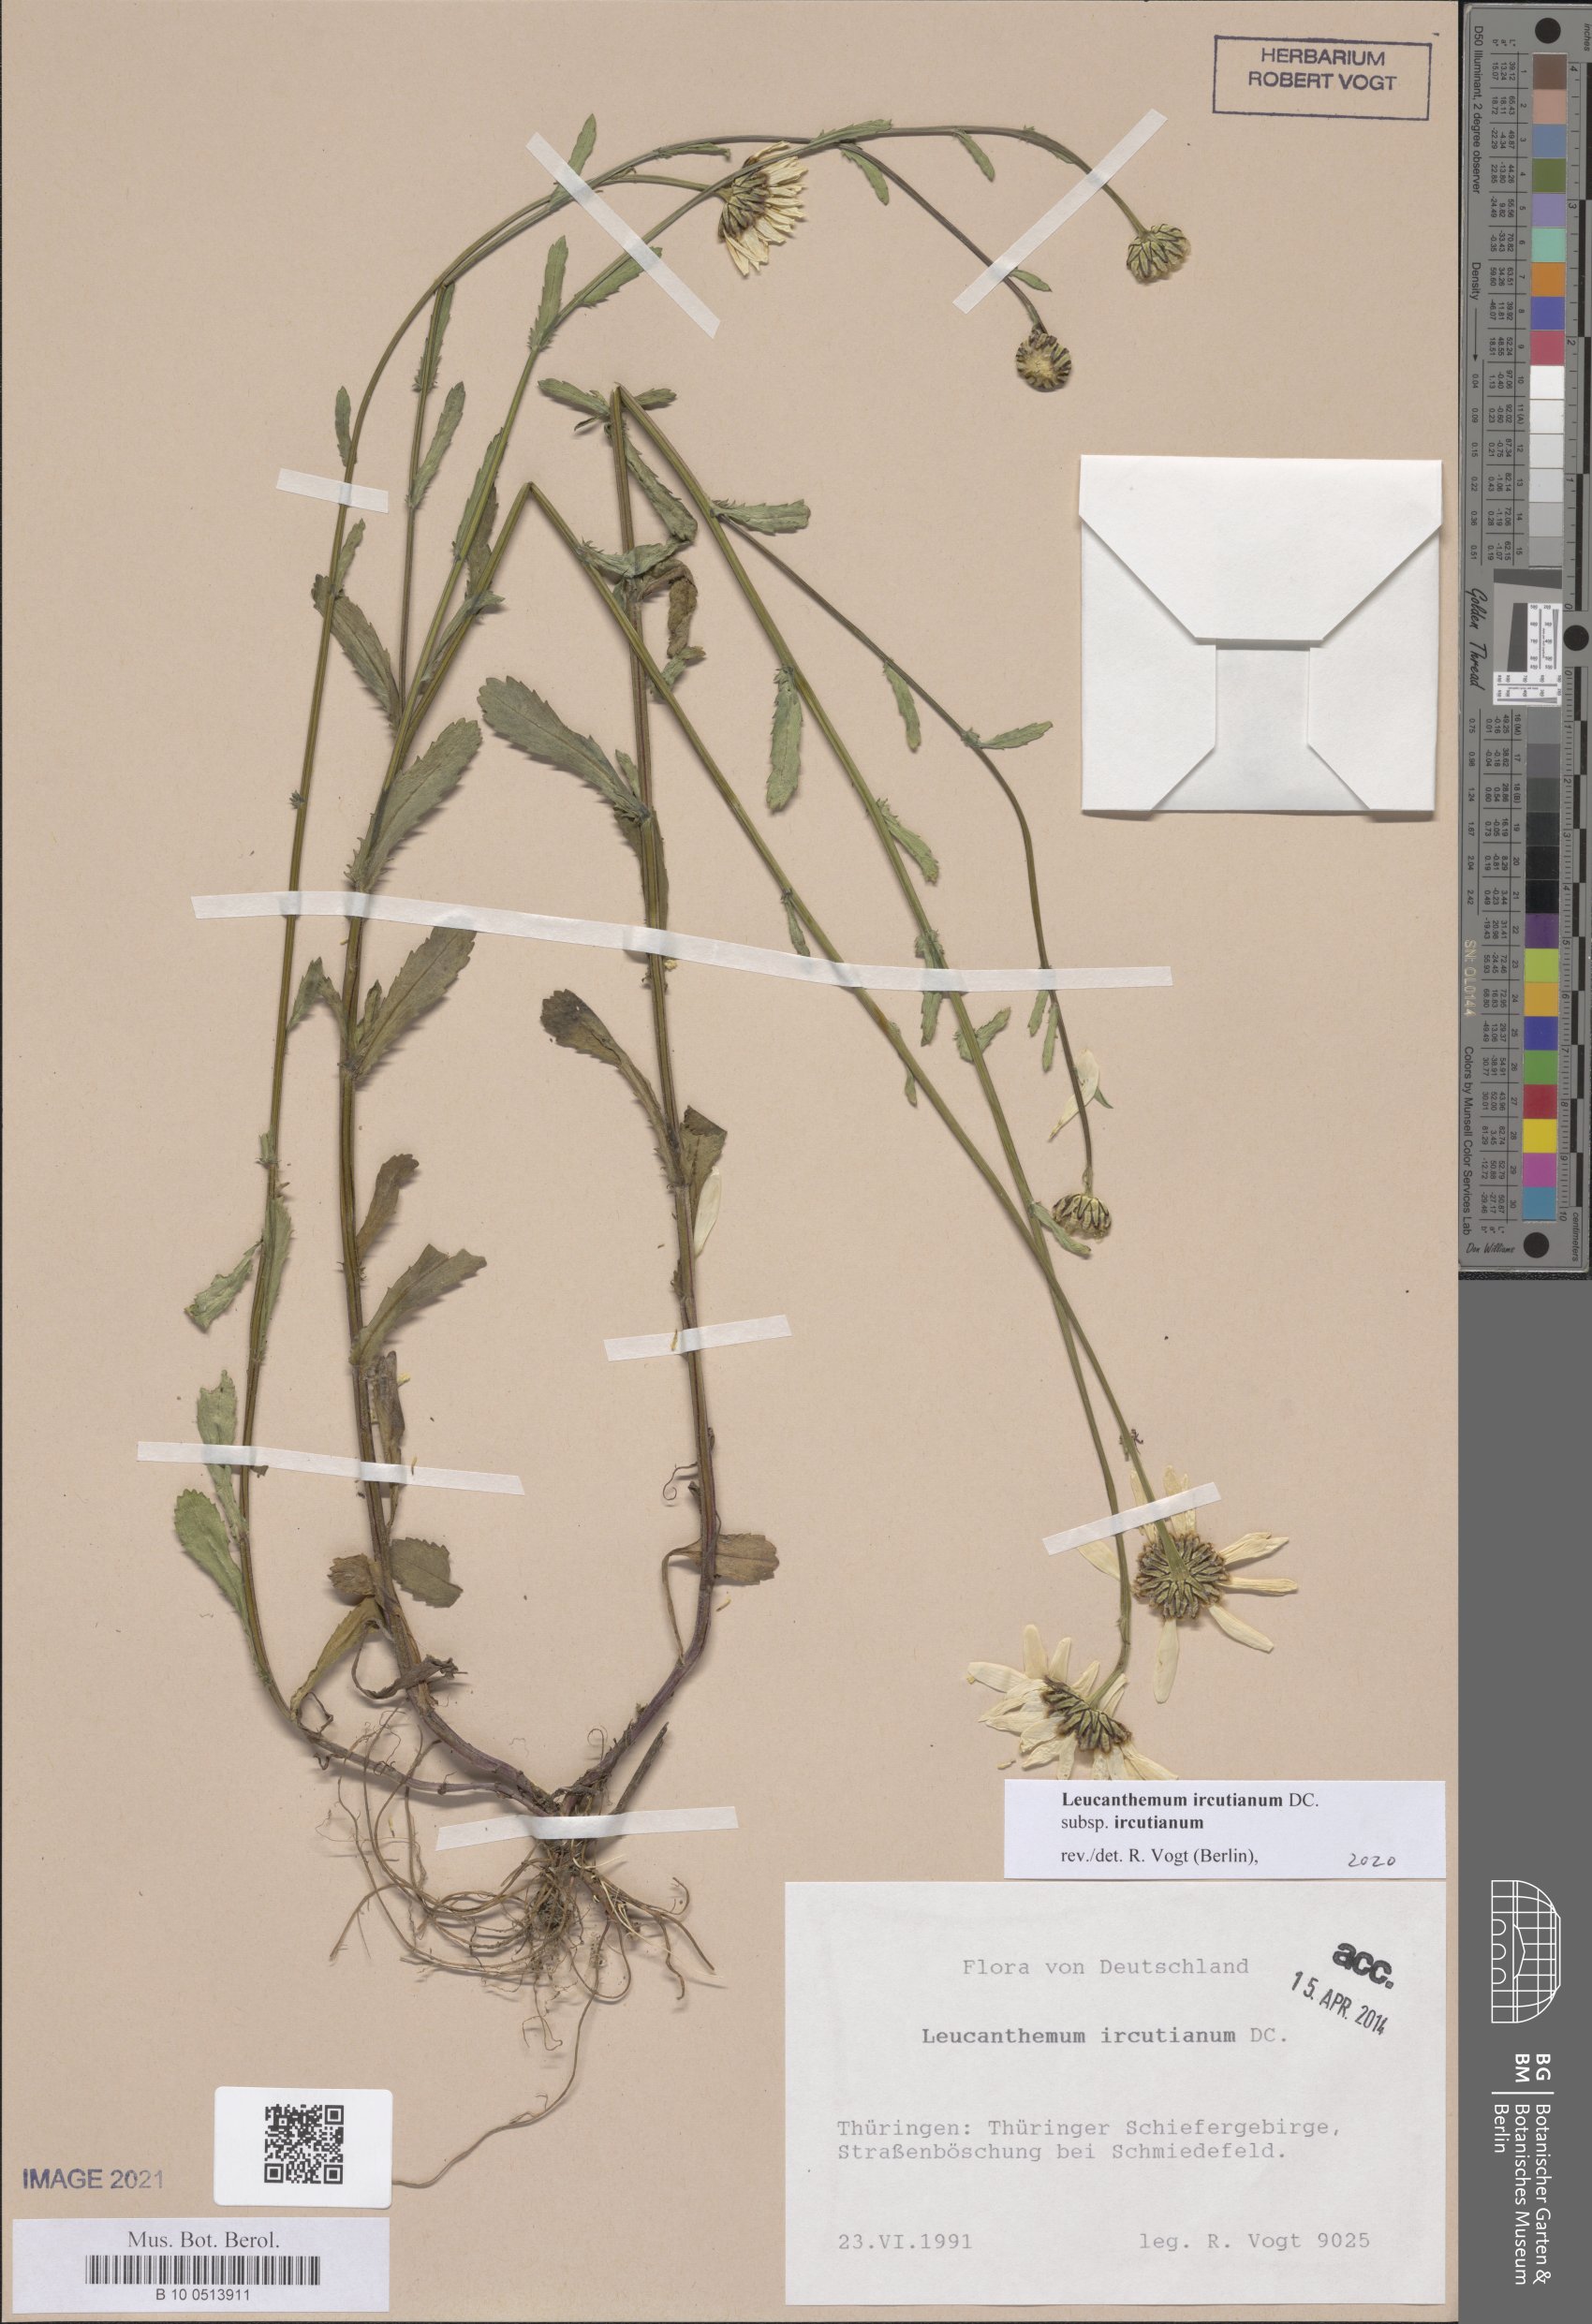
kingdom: Plantae
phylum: Tracheophyta
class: Magnoliopsida
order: Asterales
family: Asteraceae
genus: Leucanthemum
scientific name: Leucanthemum ircutianum
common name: Daisy
